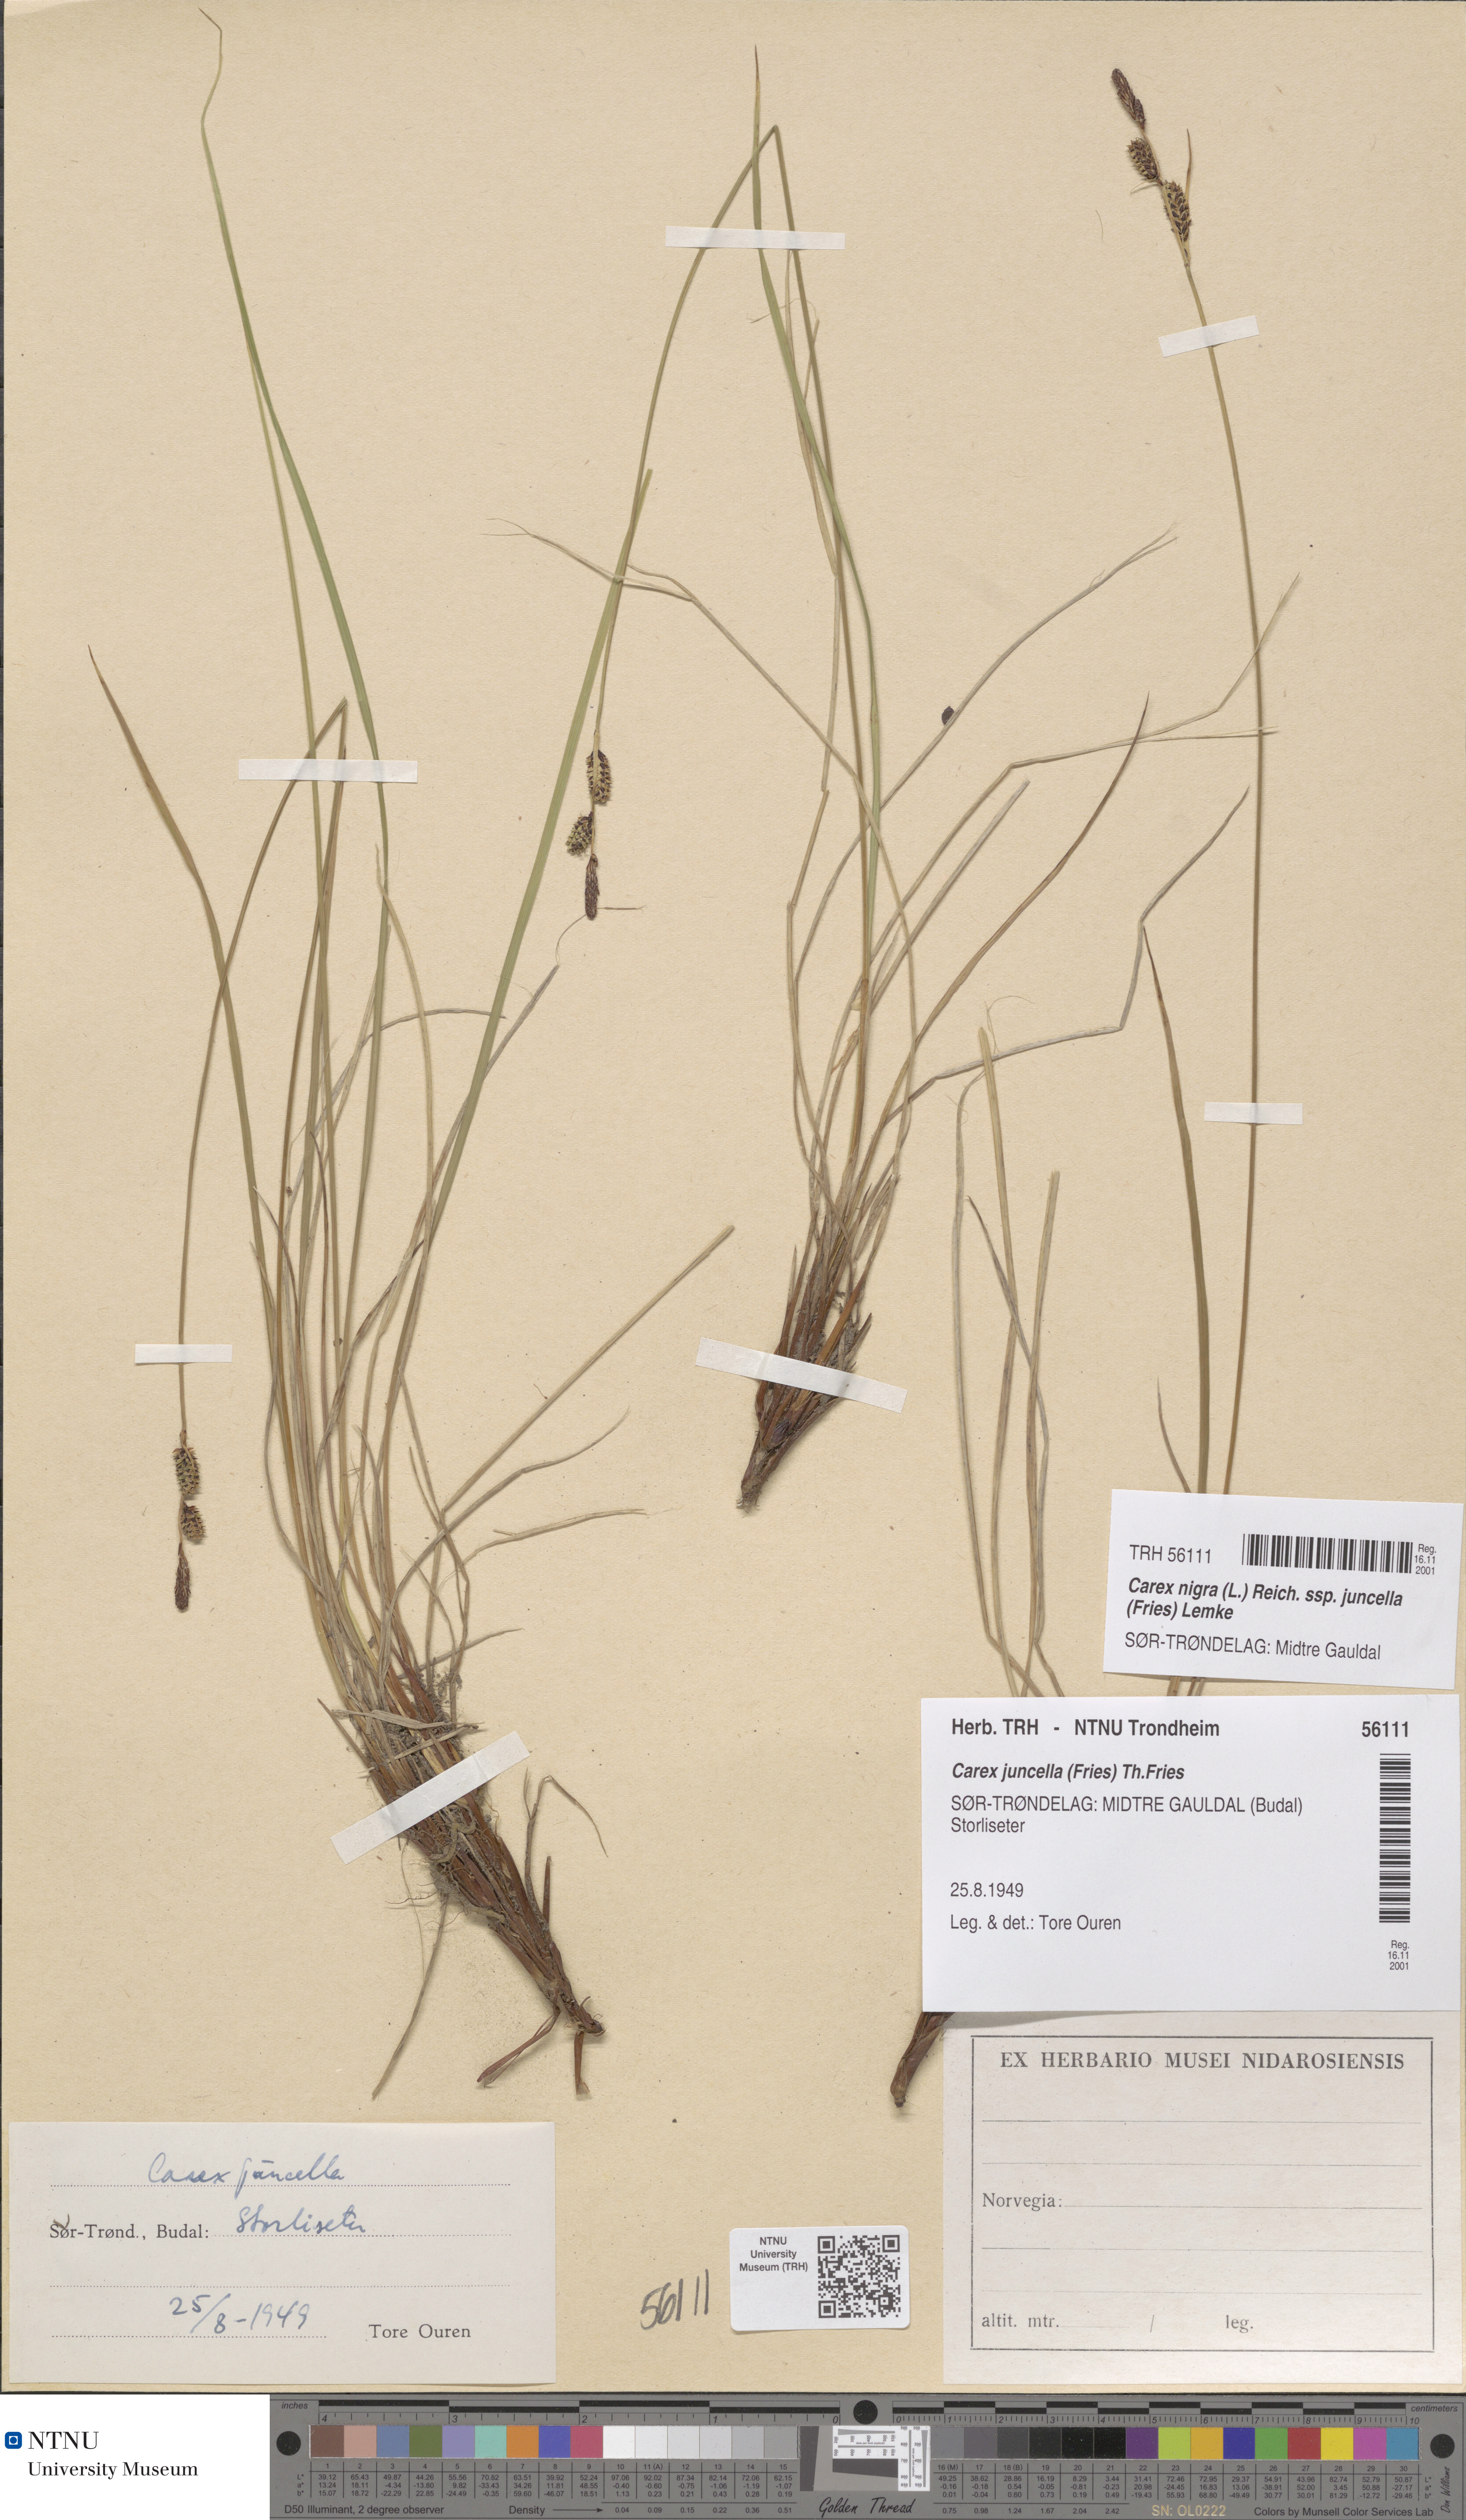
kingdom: Plantae
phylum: Tracheophyta
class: Liliopsida
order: Poales
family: Cyperaceae
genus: Carex
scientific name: Carex nigra
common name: Common sedge
